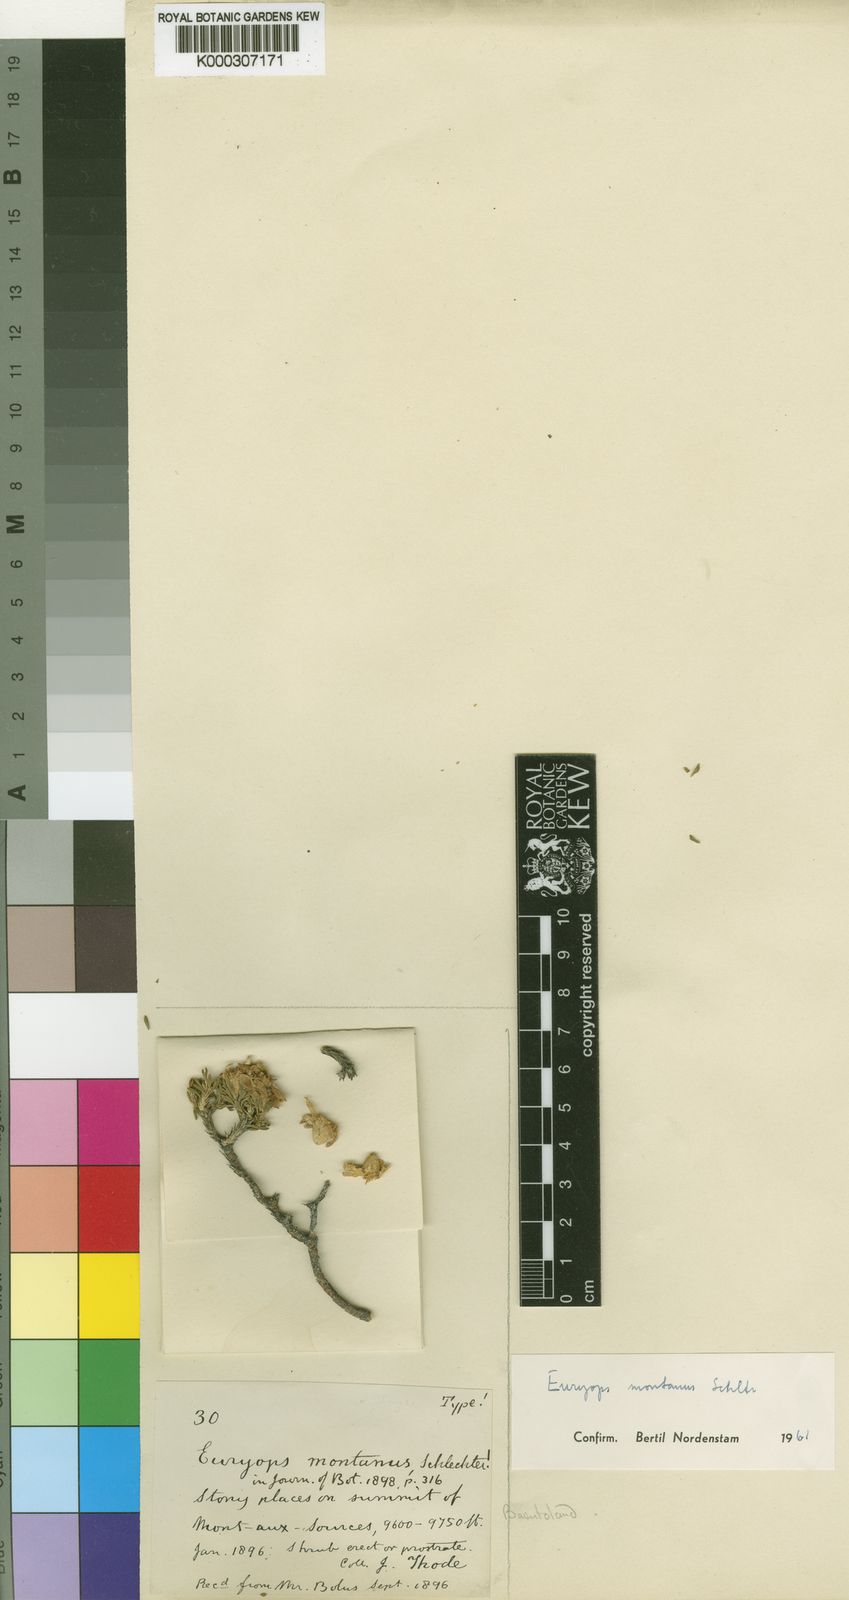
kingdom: Plantae
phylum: Tracheophyta
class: Magnoliopsida
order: Asterales
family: Asteraceae
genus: Euryops
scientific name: Euryops montanus
